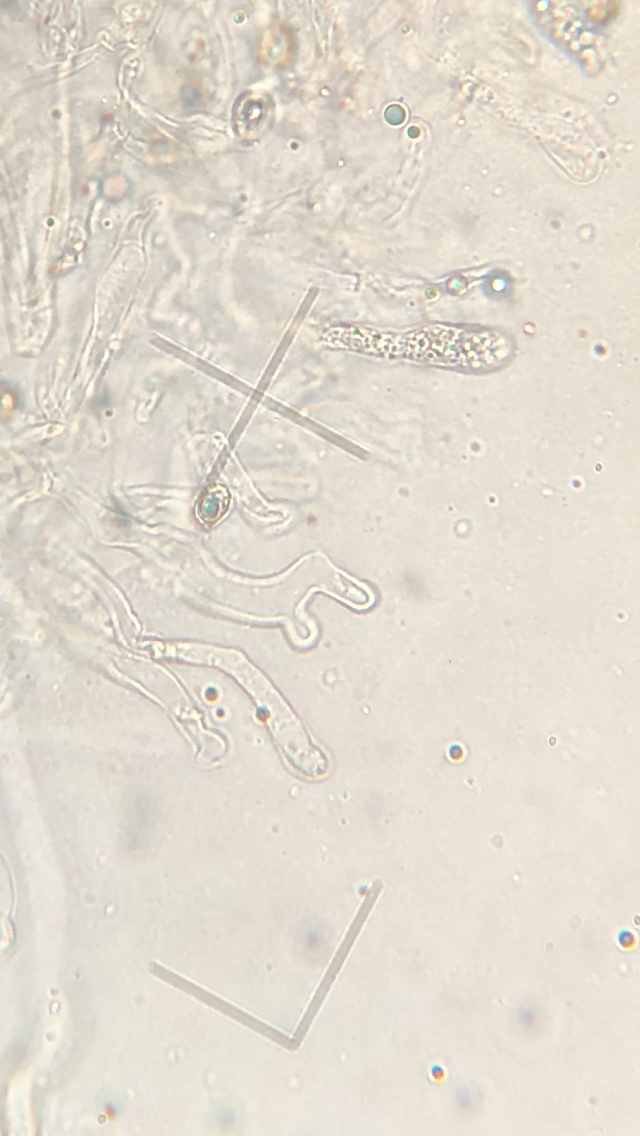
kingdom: Fungi
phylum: Basidiomycota
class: Agaricomycetes
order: Agaricales
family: Crepidotaceae
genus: Crepidotus
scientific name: Crepidotus cesatii
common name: almindelig muslingesvamp
